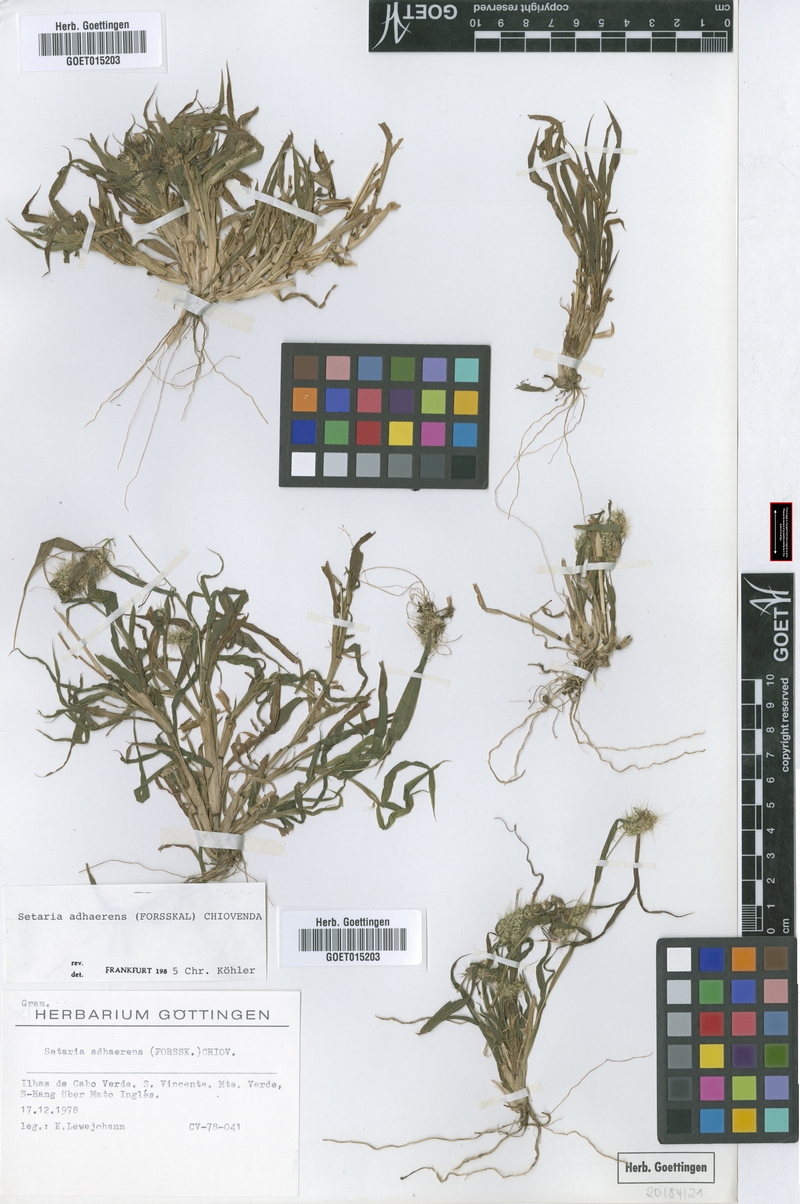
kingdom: Plantae
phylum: Tracheophyta
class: Liliopsida
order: Poales
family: Poaceae
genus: Setaria
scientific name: Setaria adhaerens
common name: Adherent bristle-grass
